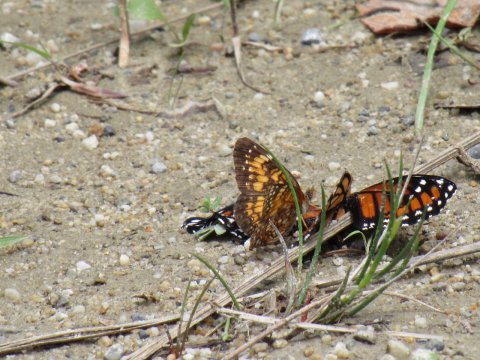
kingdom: Animalia
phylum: Arthropoda
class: Insecta
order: Lepidoptera
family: Nymphalidae
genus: Chlosyne
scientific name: Chlosyne harrisii
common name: Harris's Checkerspot
